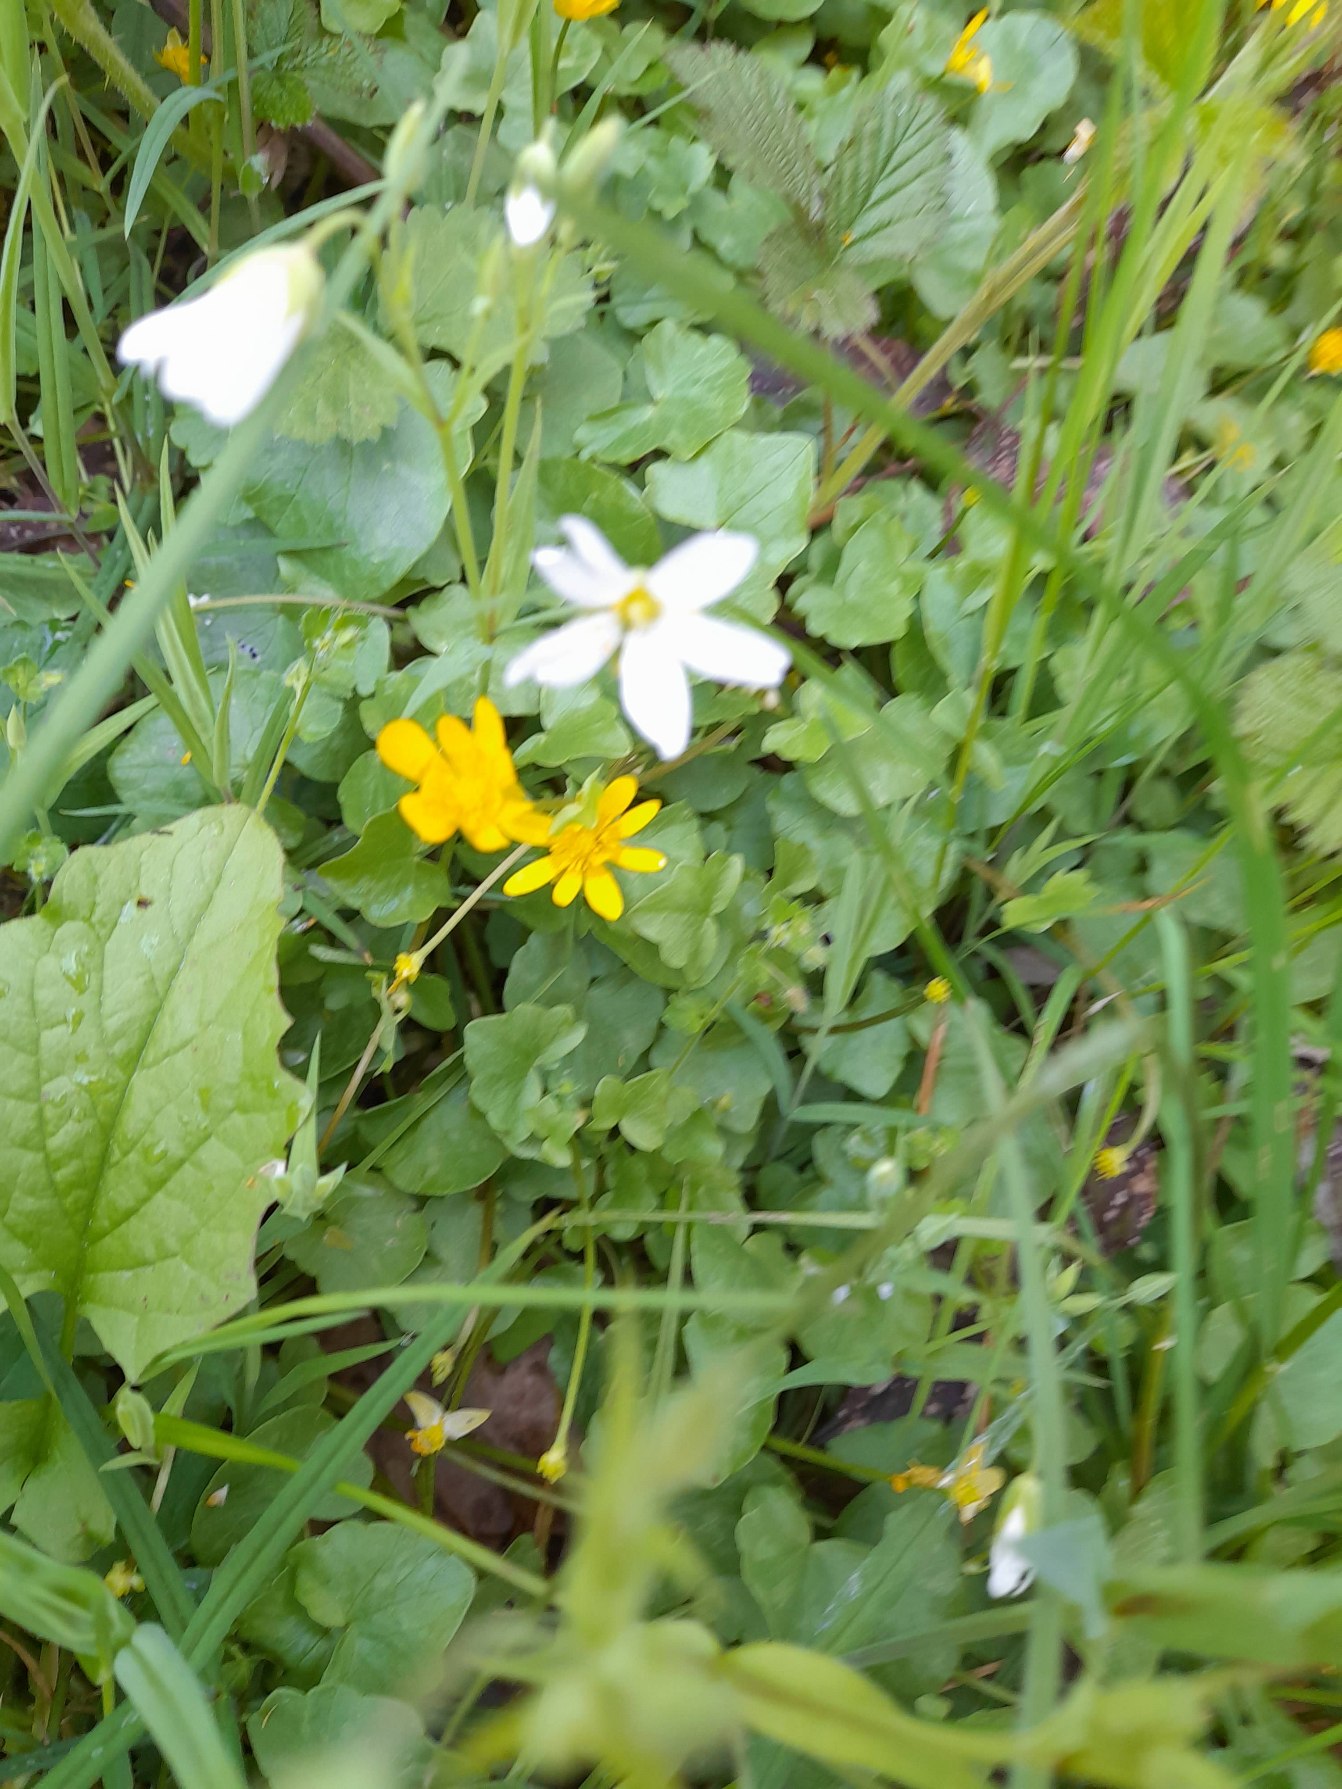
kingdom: Plantae
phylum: Tracheophyta
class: Magnoliopsida
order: Ranunculales
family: Ranunculaceae
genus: Ficaria
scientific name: Ficaria verna
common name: Vorterod
